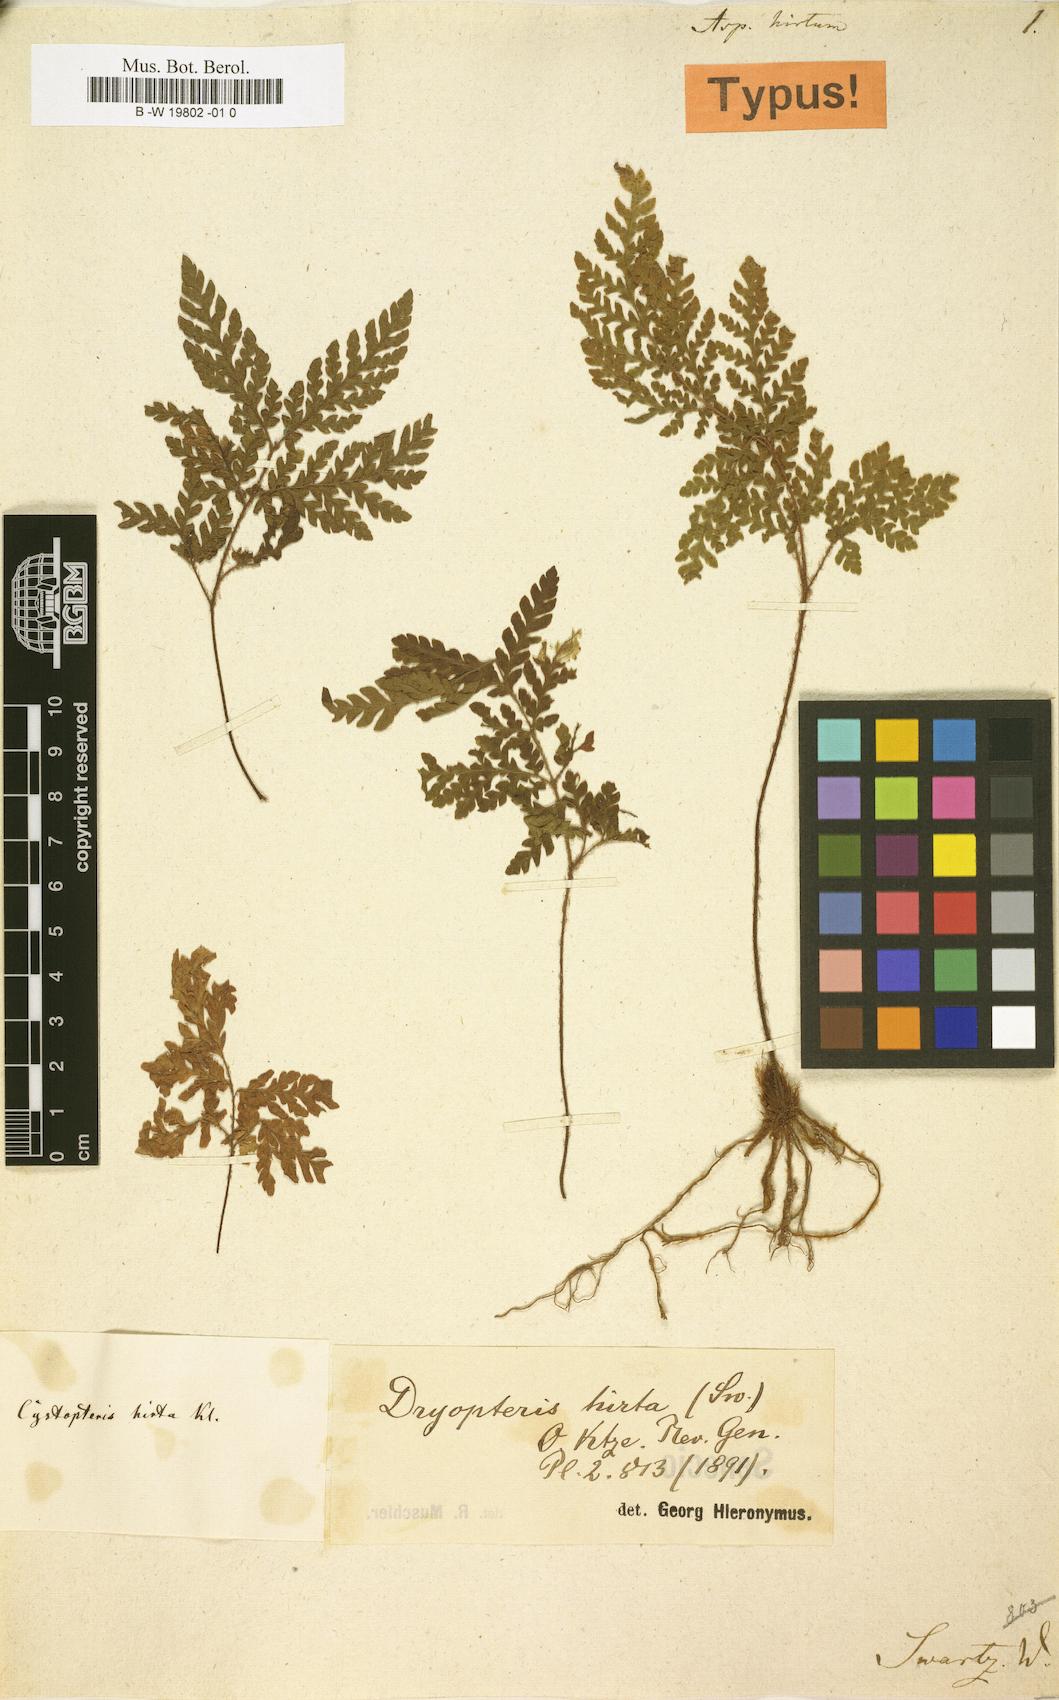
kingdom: Plantae
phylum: Tracheophyta
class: Polypodiopsida
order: Polypodiales
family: Dryopteridaceae
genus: Ctenitis
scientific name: Ctenitis hirta
